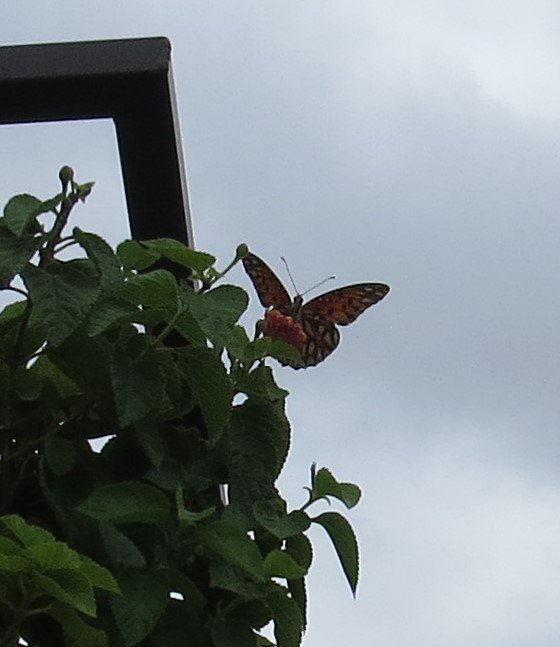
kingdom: Animalia
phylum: Arthropoda
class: Insecta
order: Lepidoptera
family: Nymphalidae
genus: Dione
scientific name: Dione vanillae
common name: Gulf Fritillary
